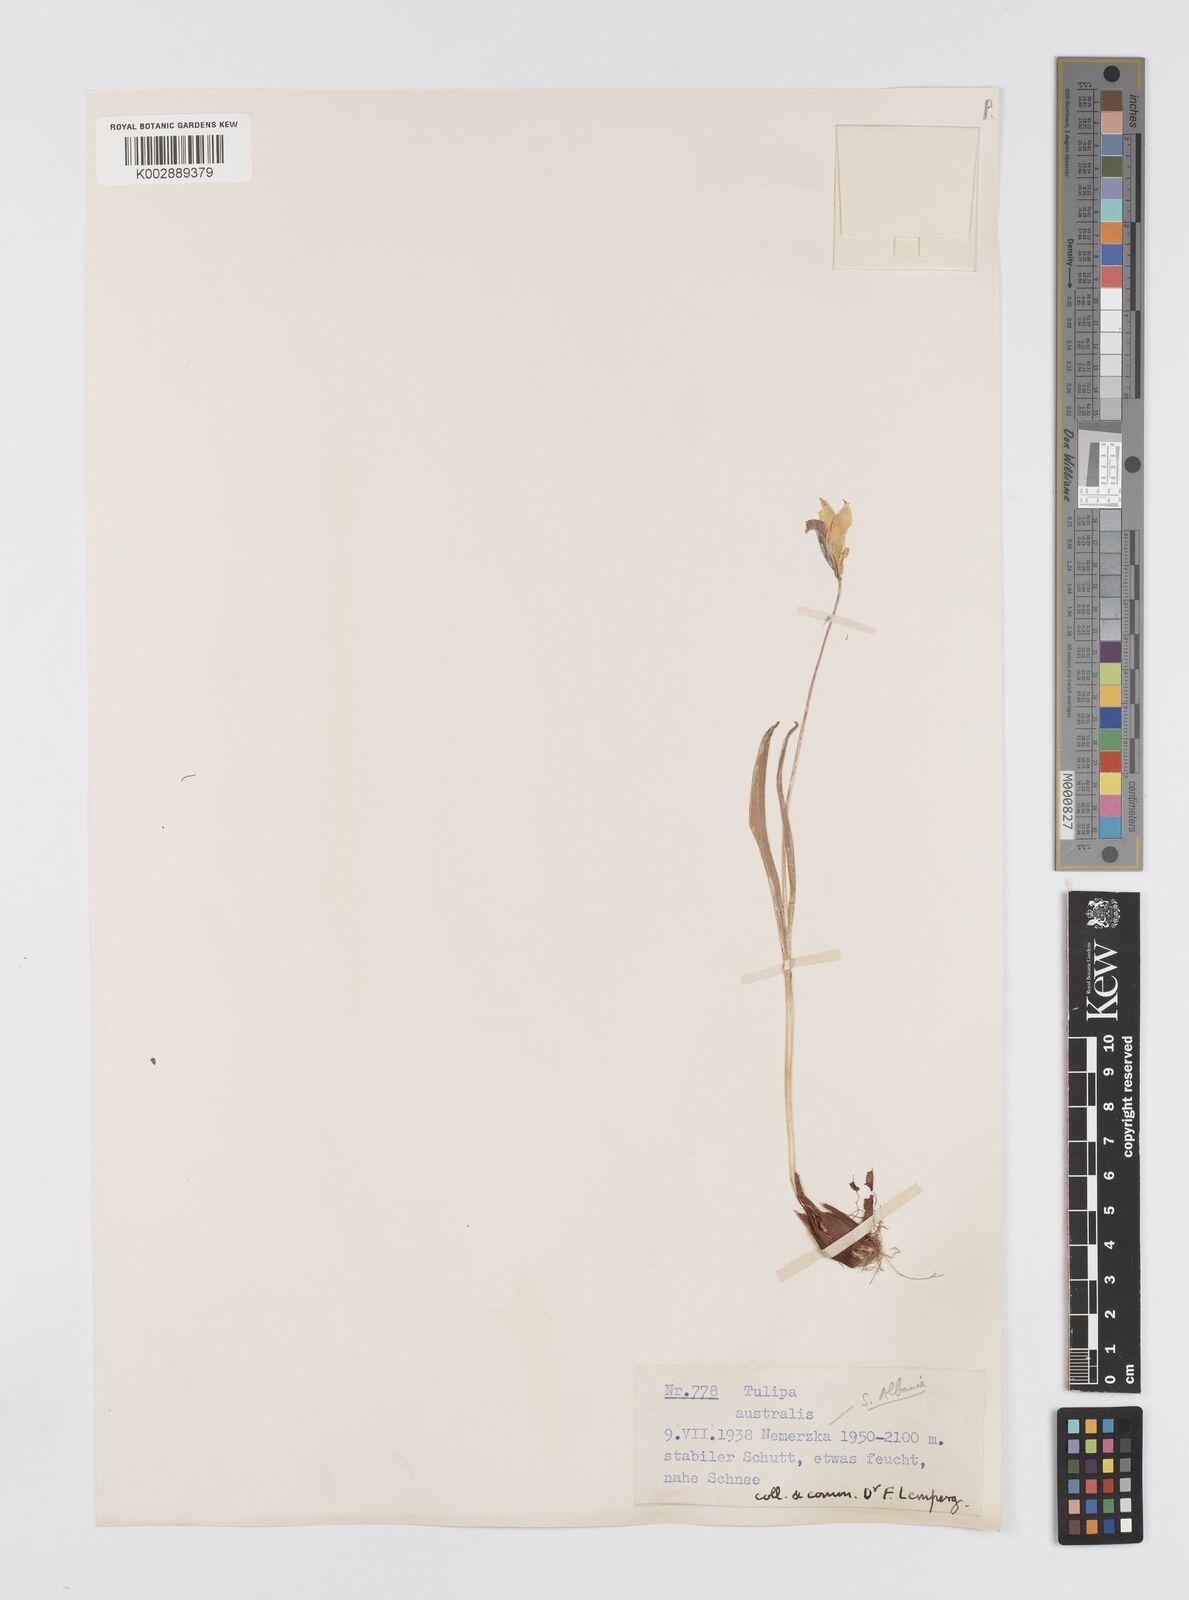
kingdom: Plantae
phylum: Tracheophyta
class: Liliopsida
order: Liliales
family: Liliaceae
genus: Tulipa
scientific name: Tulipa sylvestris
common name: Wild tulip
